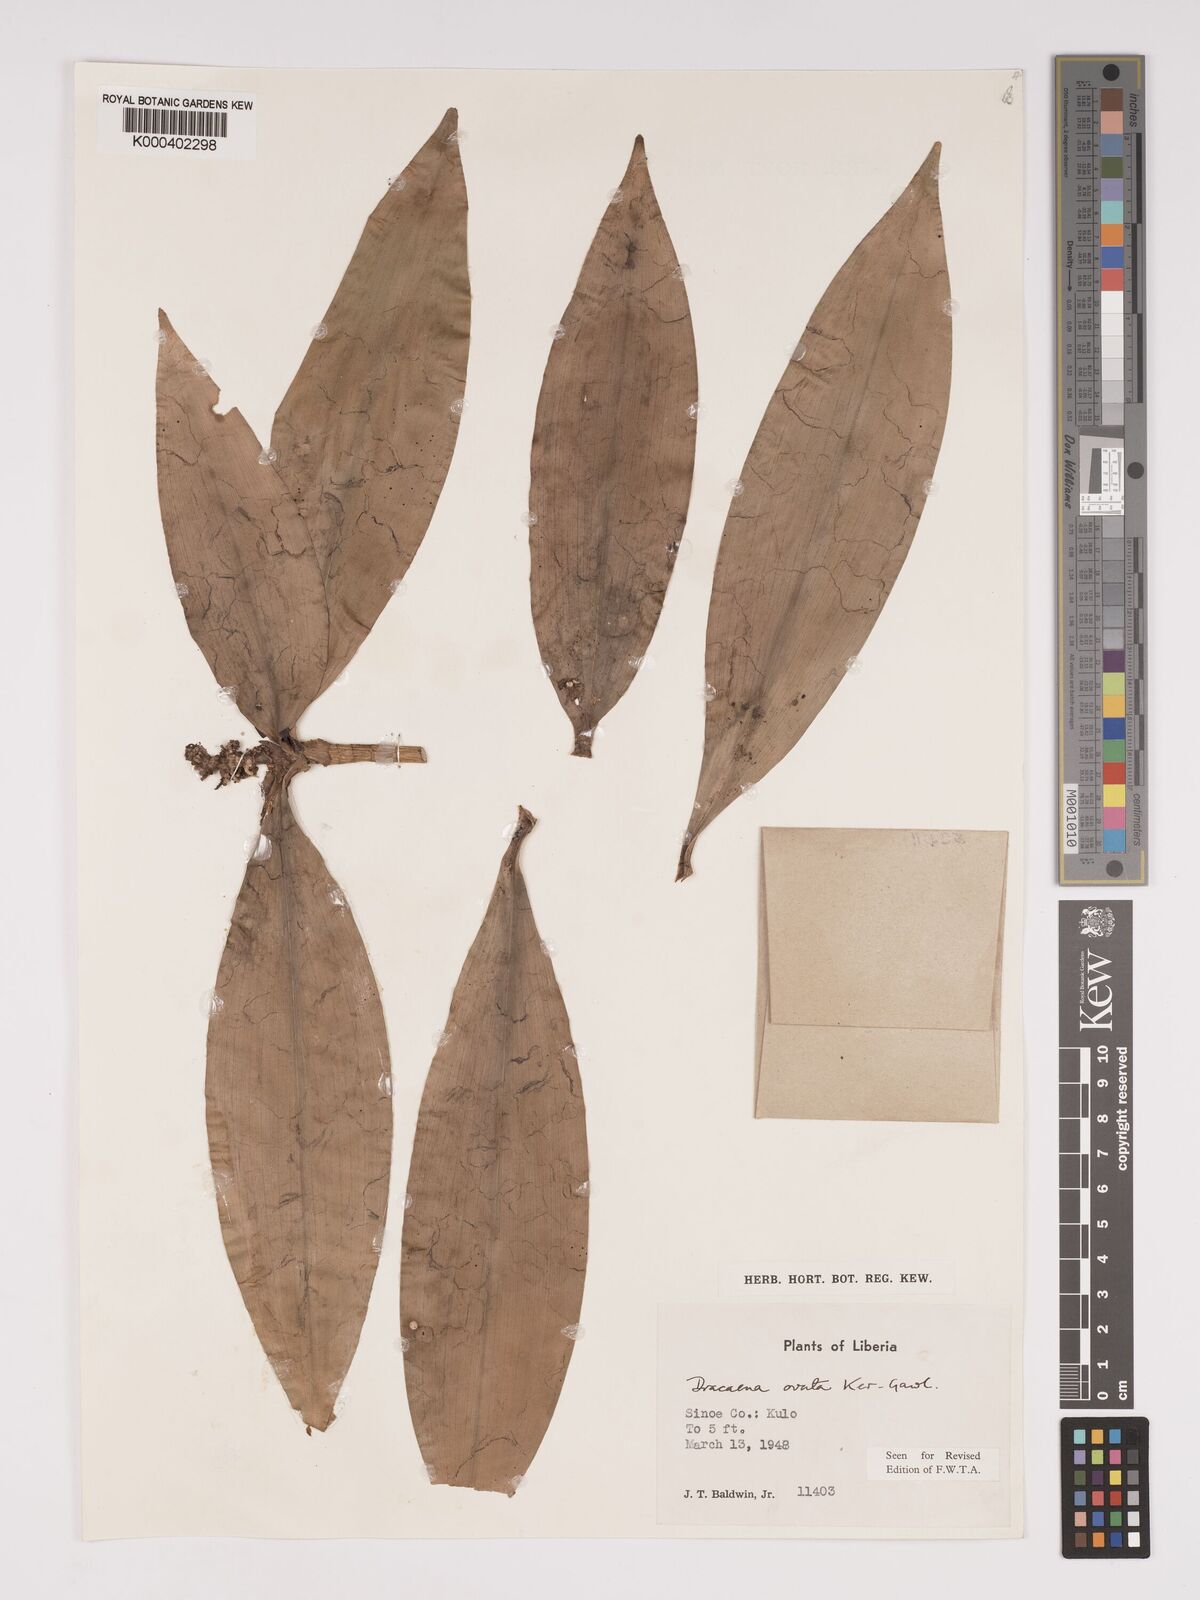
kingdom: Plantae
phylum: Tracheophyta
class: Liliopsida
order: Asparagales
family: Asparagaceae
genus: Dracaena
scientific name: Dracaena ovata
